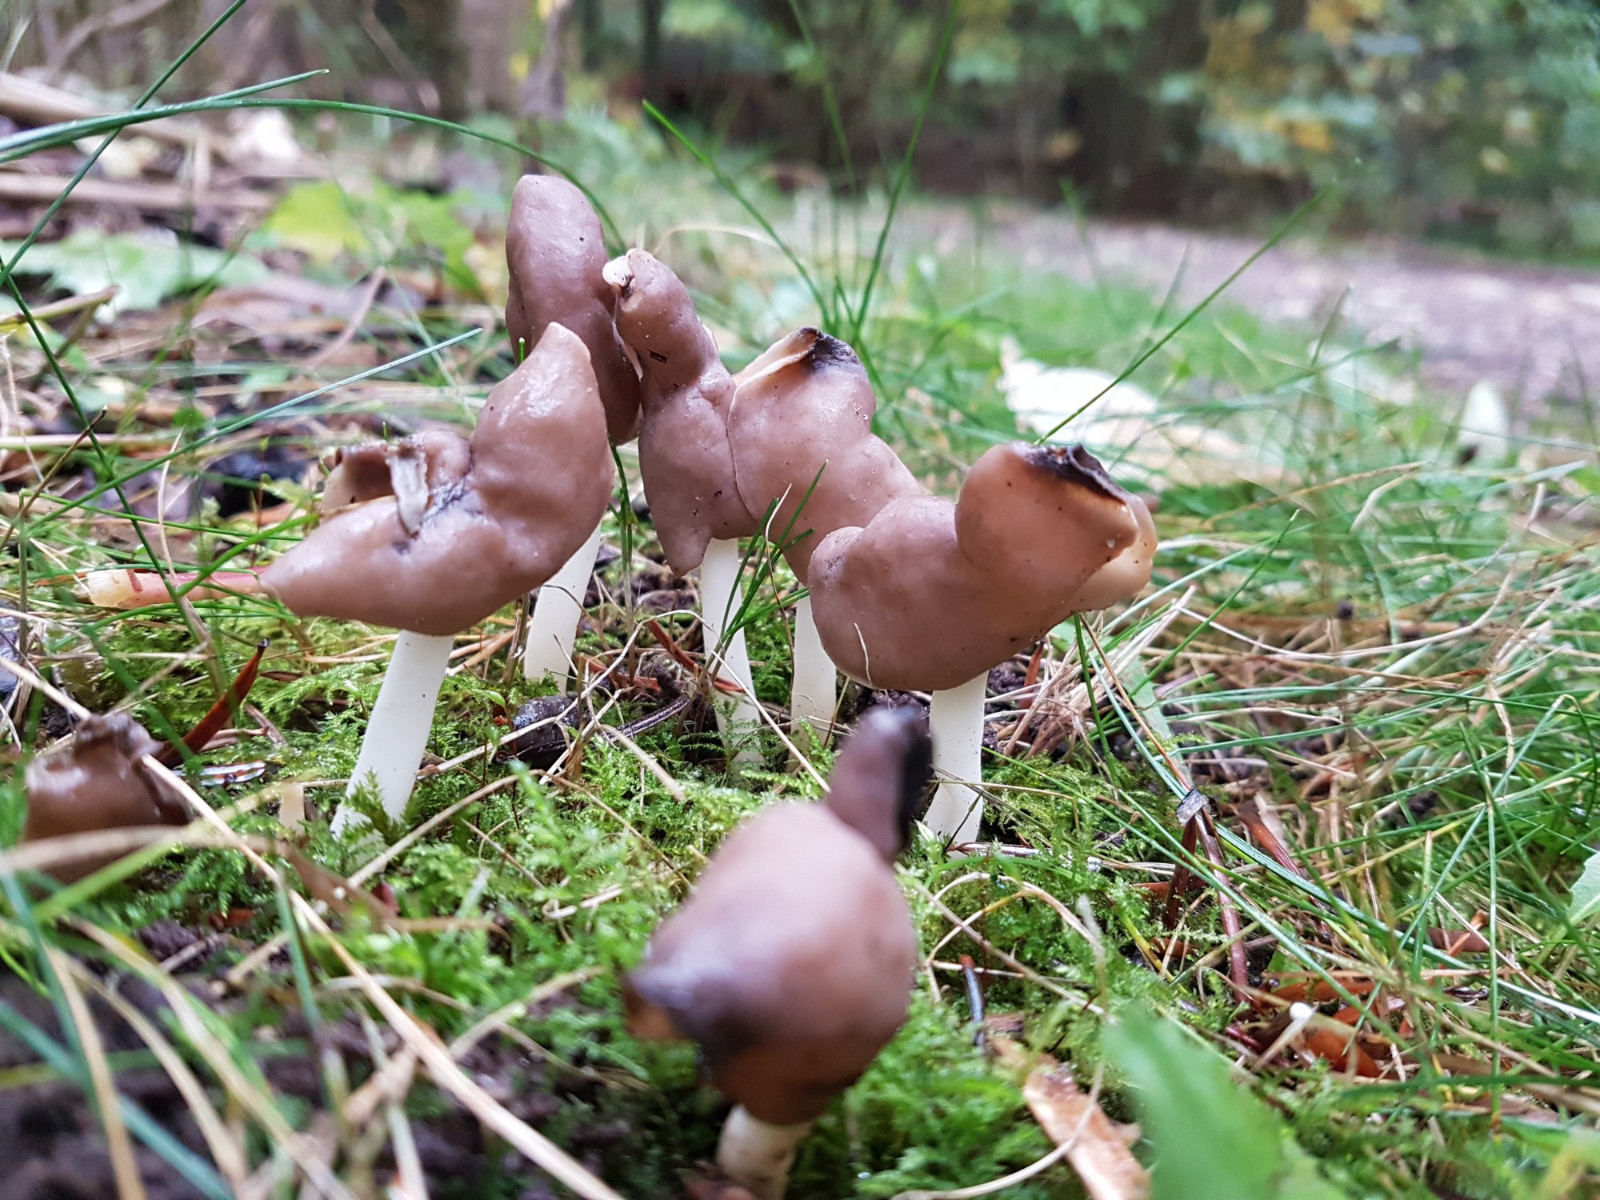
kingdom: Fungi
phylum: Ascomycota
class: Pezizomycetes
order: Pezizales
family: Helvellaceae
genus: Helvella
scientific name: Helvella elastica
